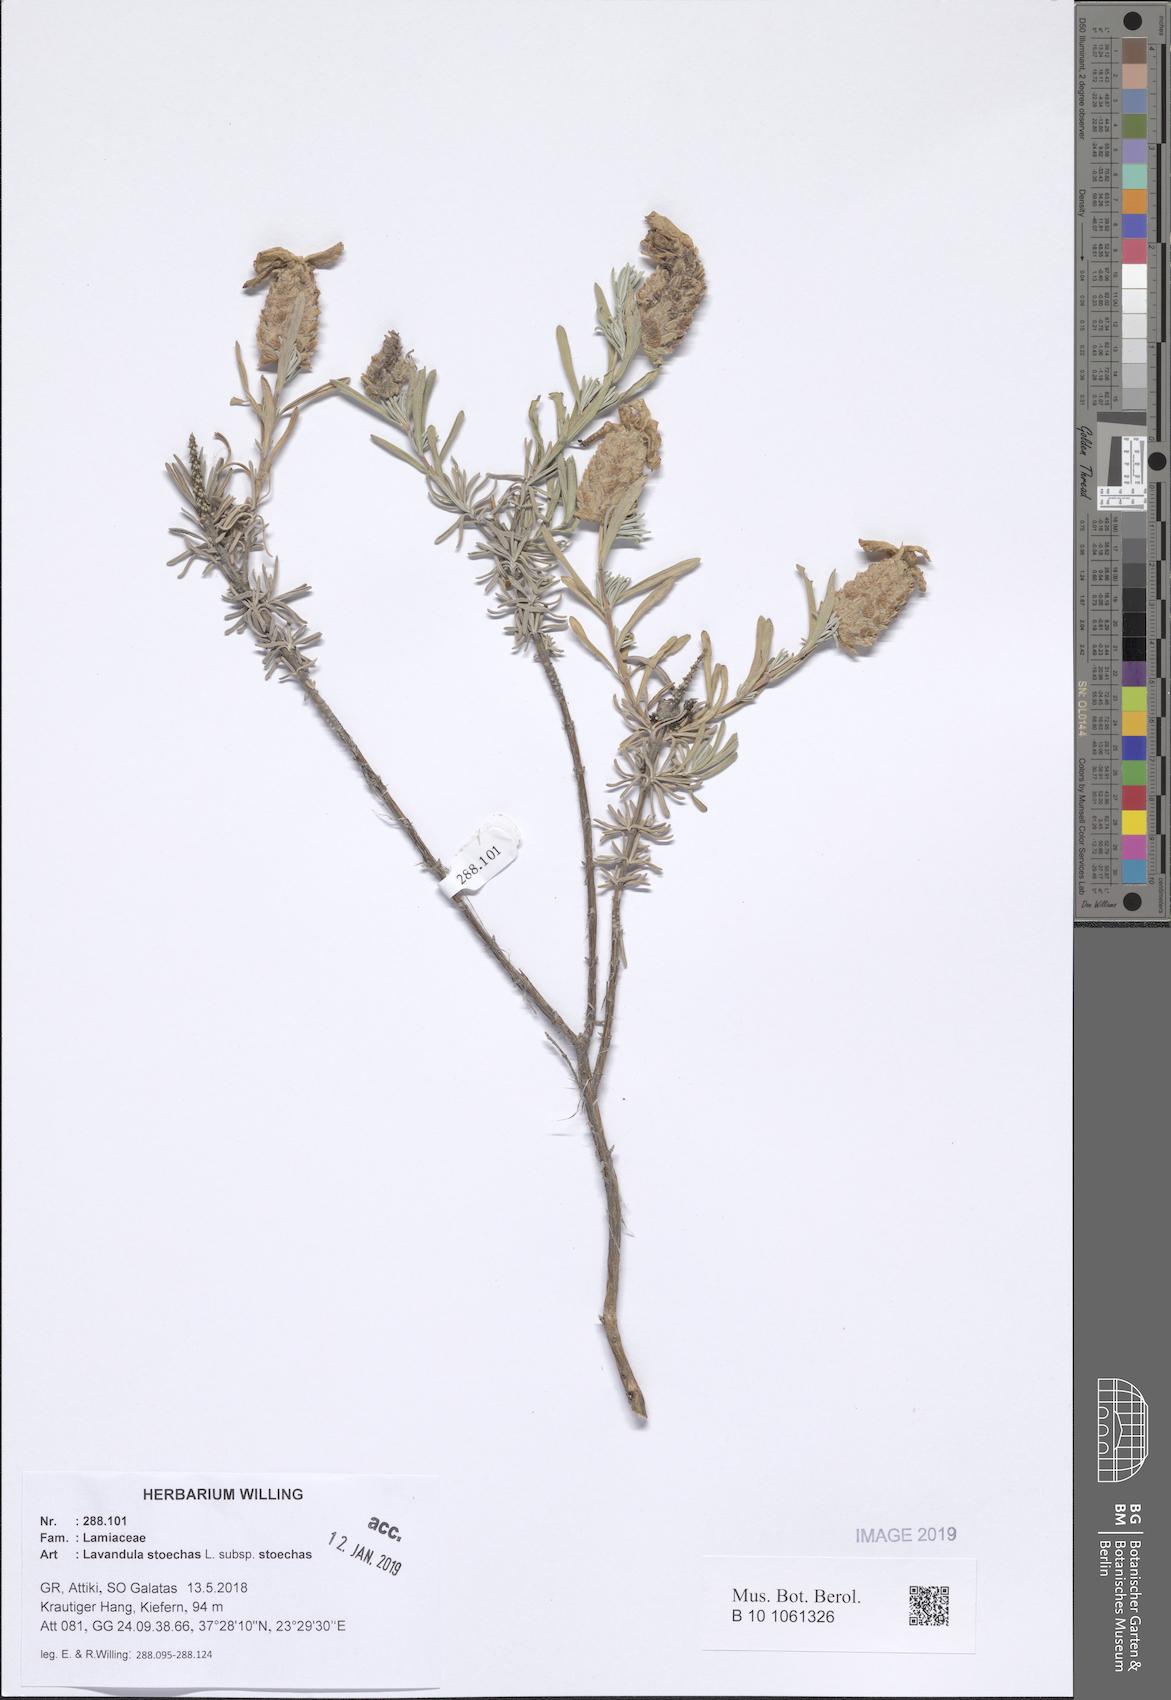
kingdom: Plantae
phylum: Tracheophyta
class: Magnoliopsida
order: Lamiales
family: Lamiaceae
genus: Lavandula
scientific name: Lavandula stoechas
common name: French lavender
